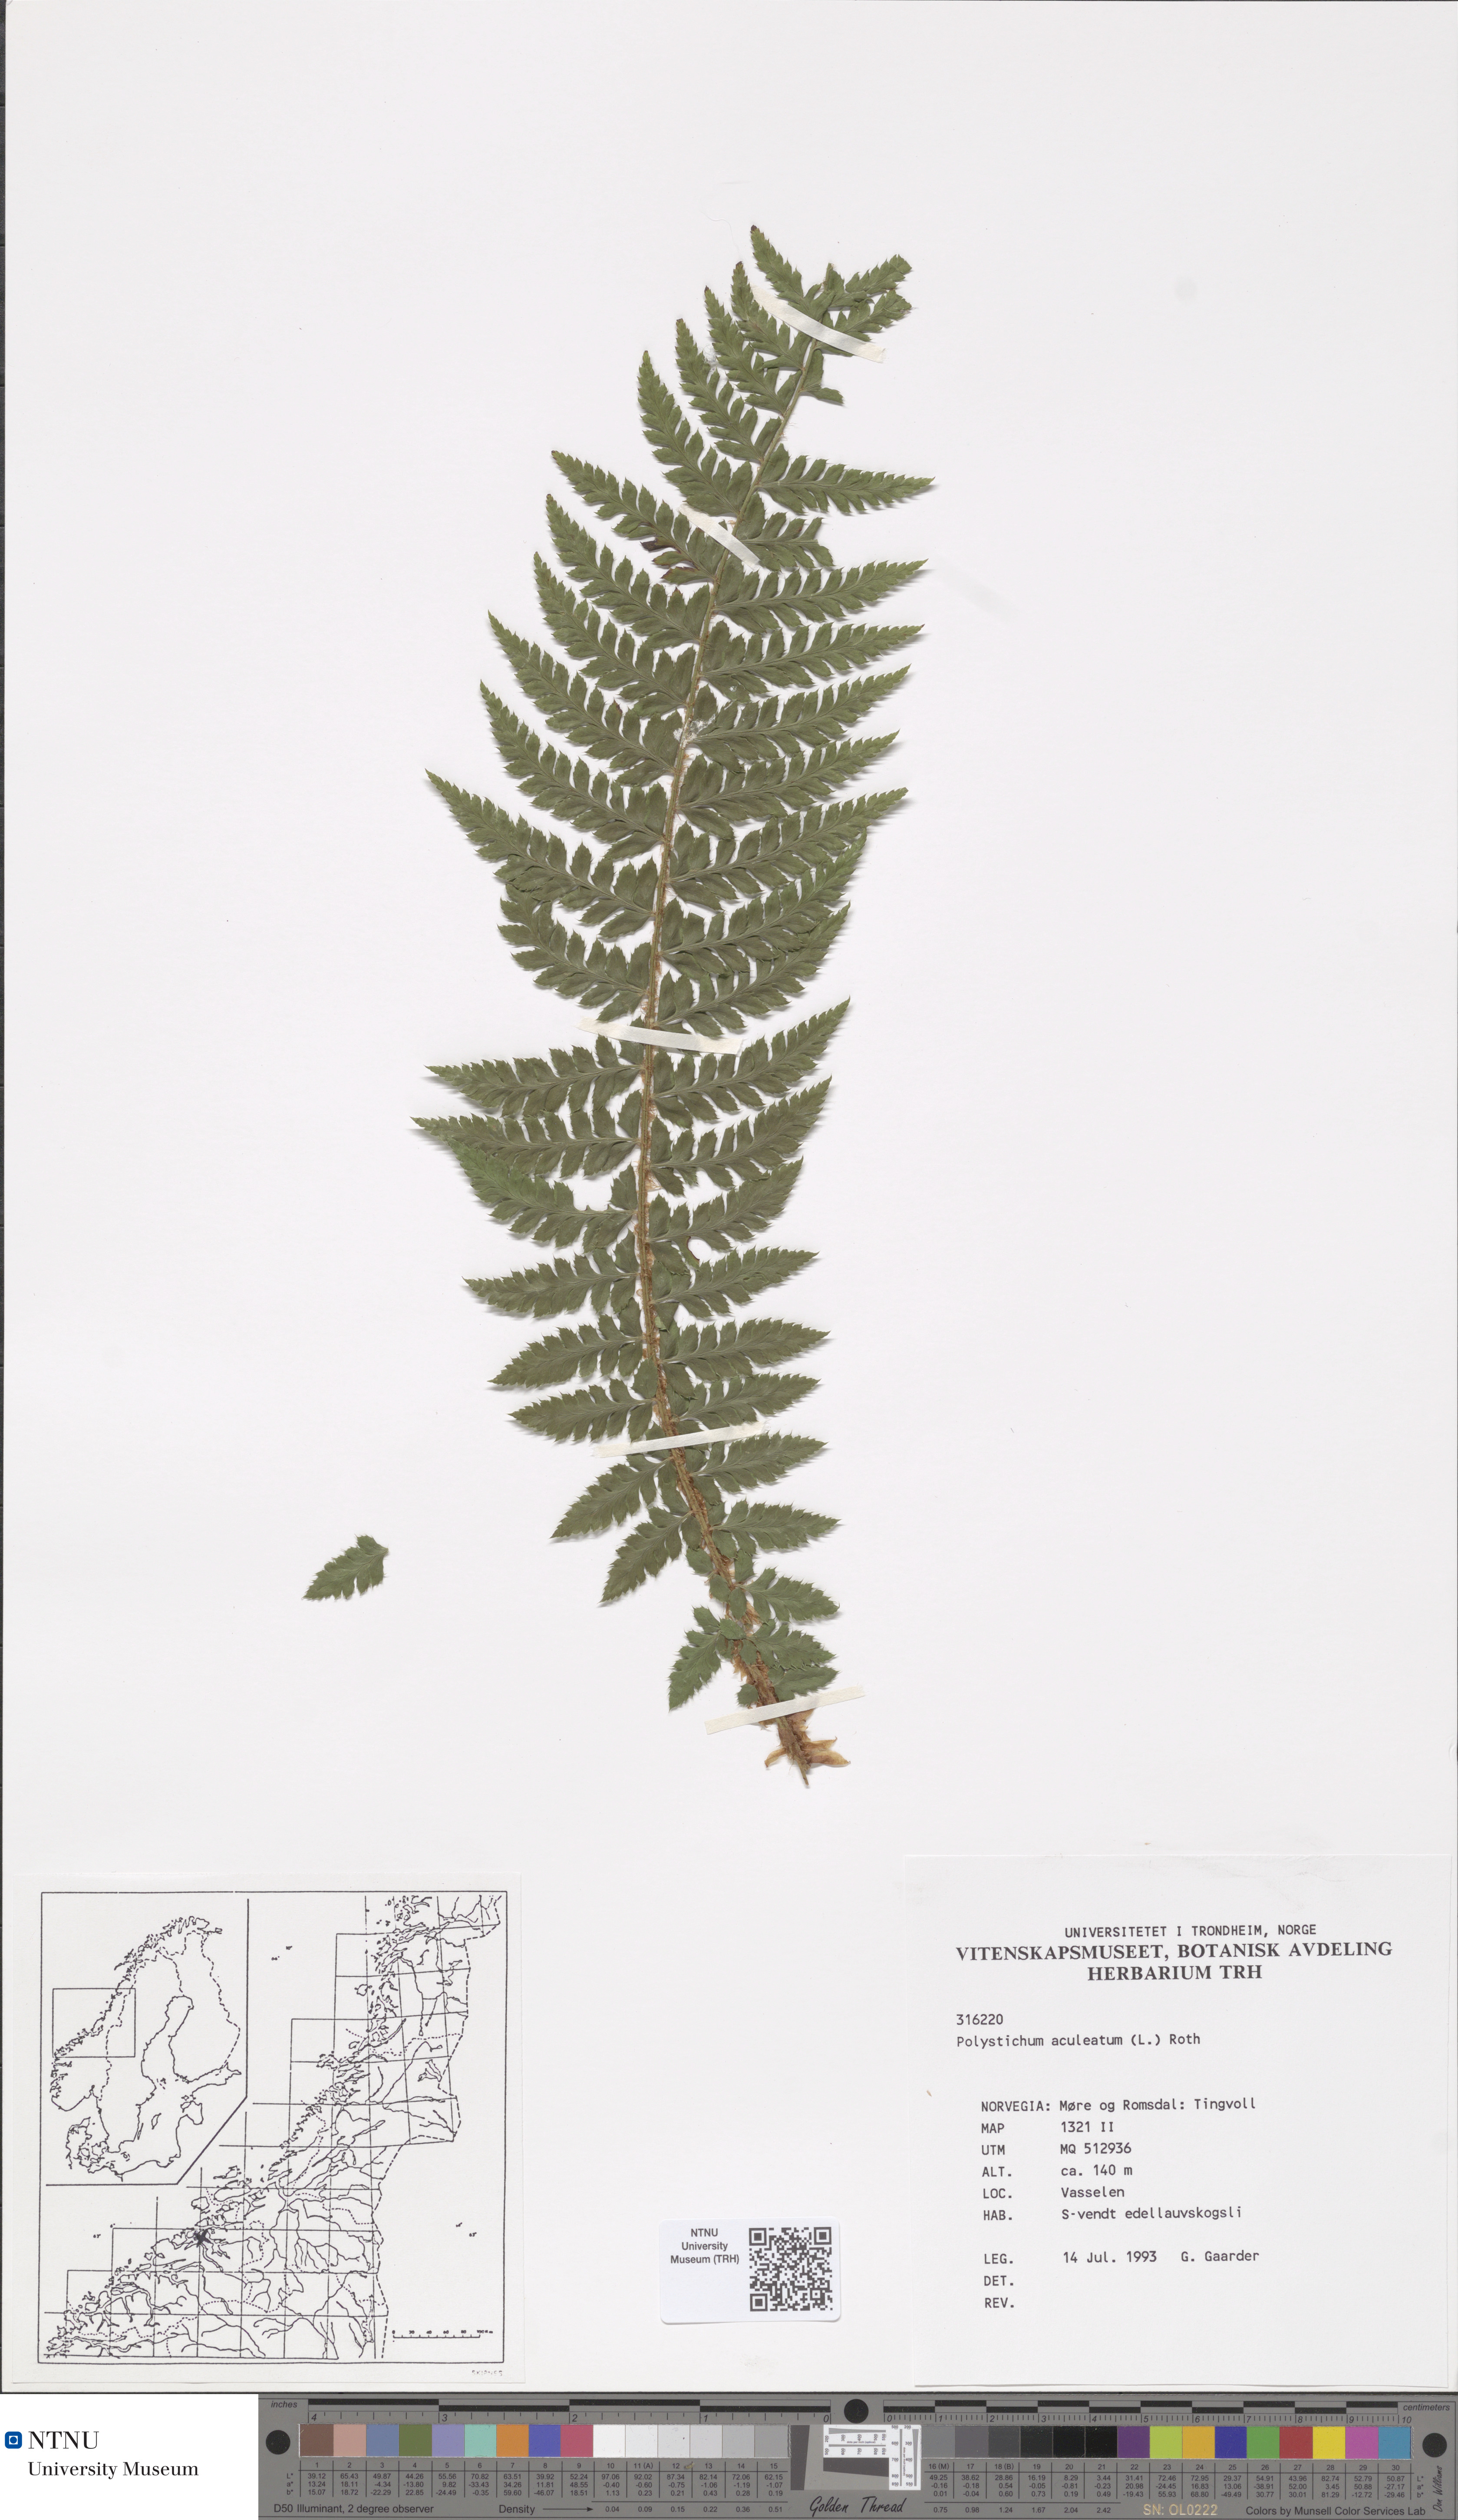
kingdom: Plantae
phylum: Tracheophyta
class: Polypodiopsida
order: Polypodiales
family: Dryopteridaceae
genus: Polystichum
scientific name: Polystichum aculeatum
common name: Hard shield-fern
